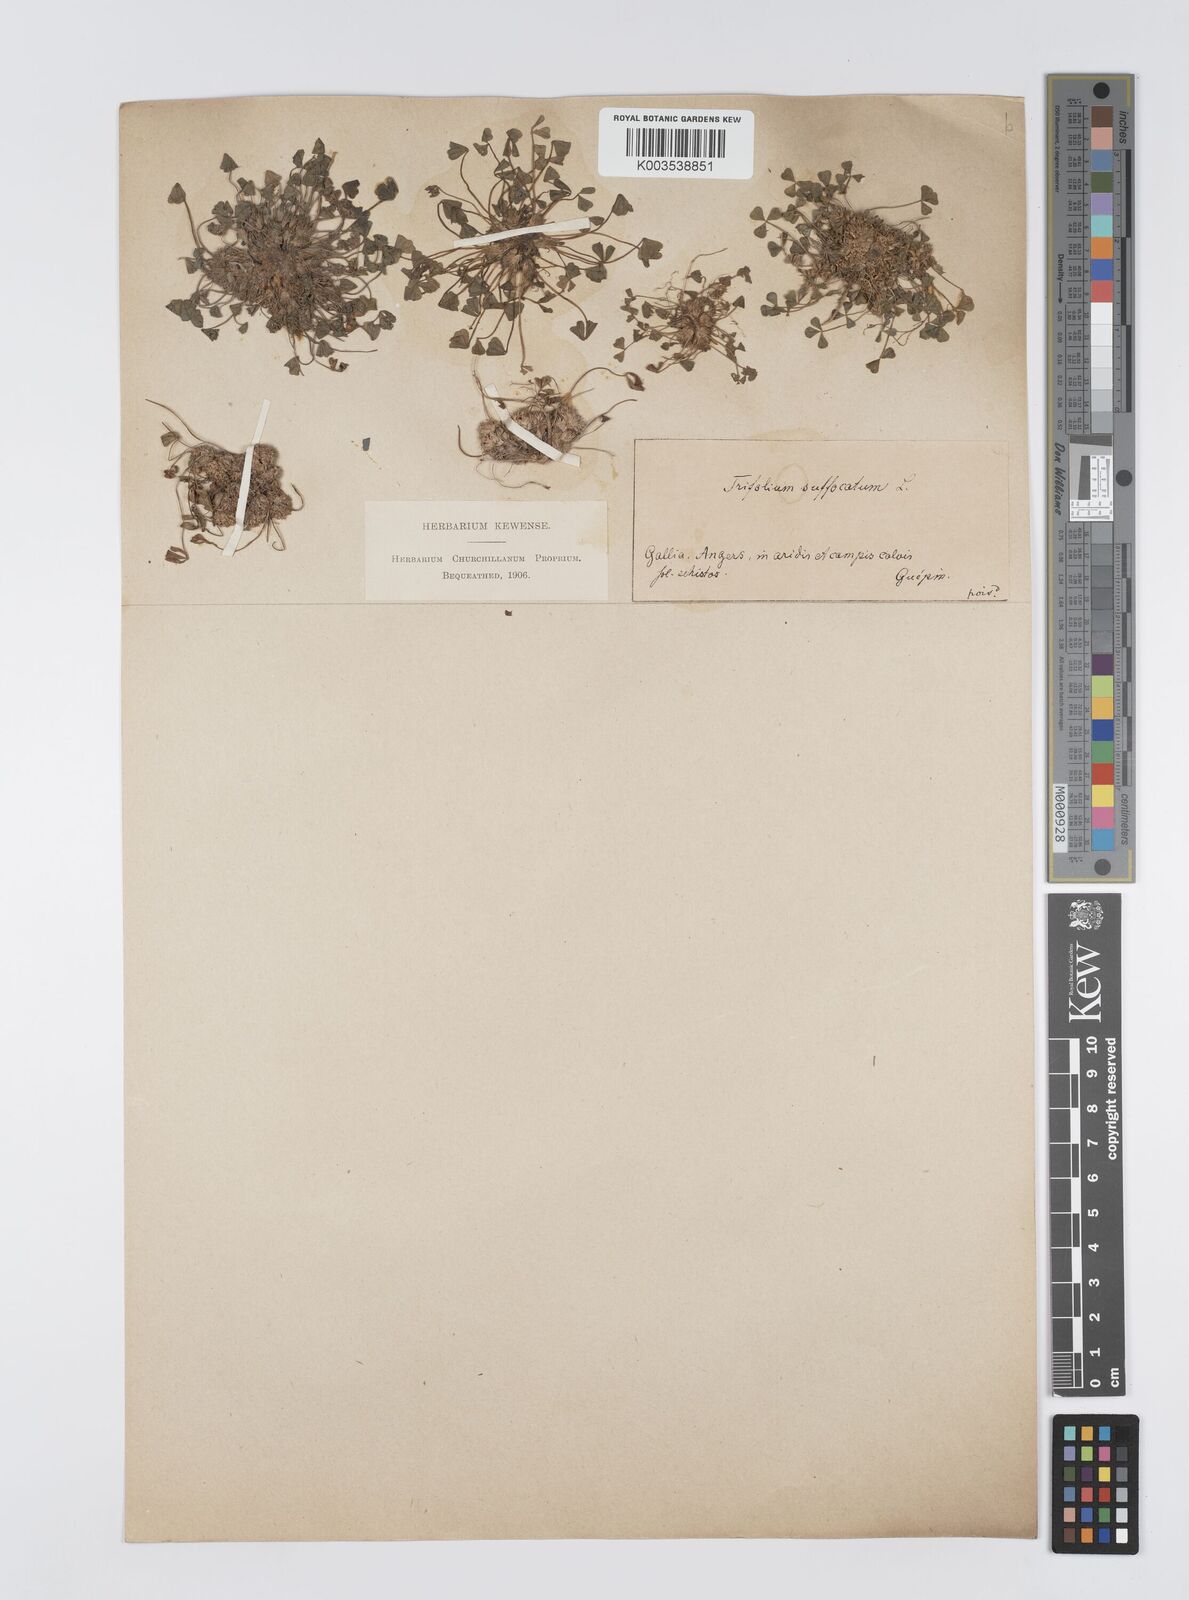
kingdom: Plantae
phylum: Tracheophyta
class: Magnoliopsida
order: Fabales
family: Fabaceae
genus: Trifolium
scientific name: Trifolium suffocatum
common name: Suffocated clover
